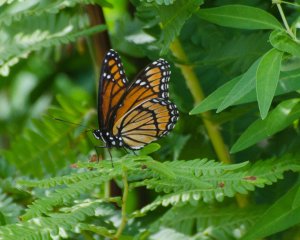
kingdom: Animalia
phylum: Arthropoda
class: Insecta
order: Lepidoptera
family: Nymphalidae
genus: Limenitis
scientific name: Limenitis archippus
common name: Viceroy
